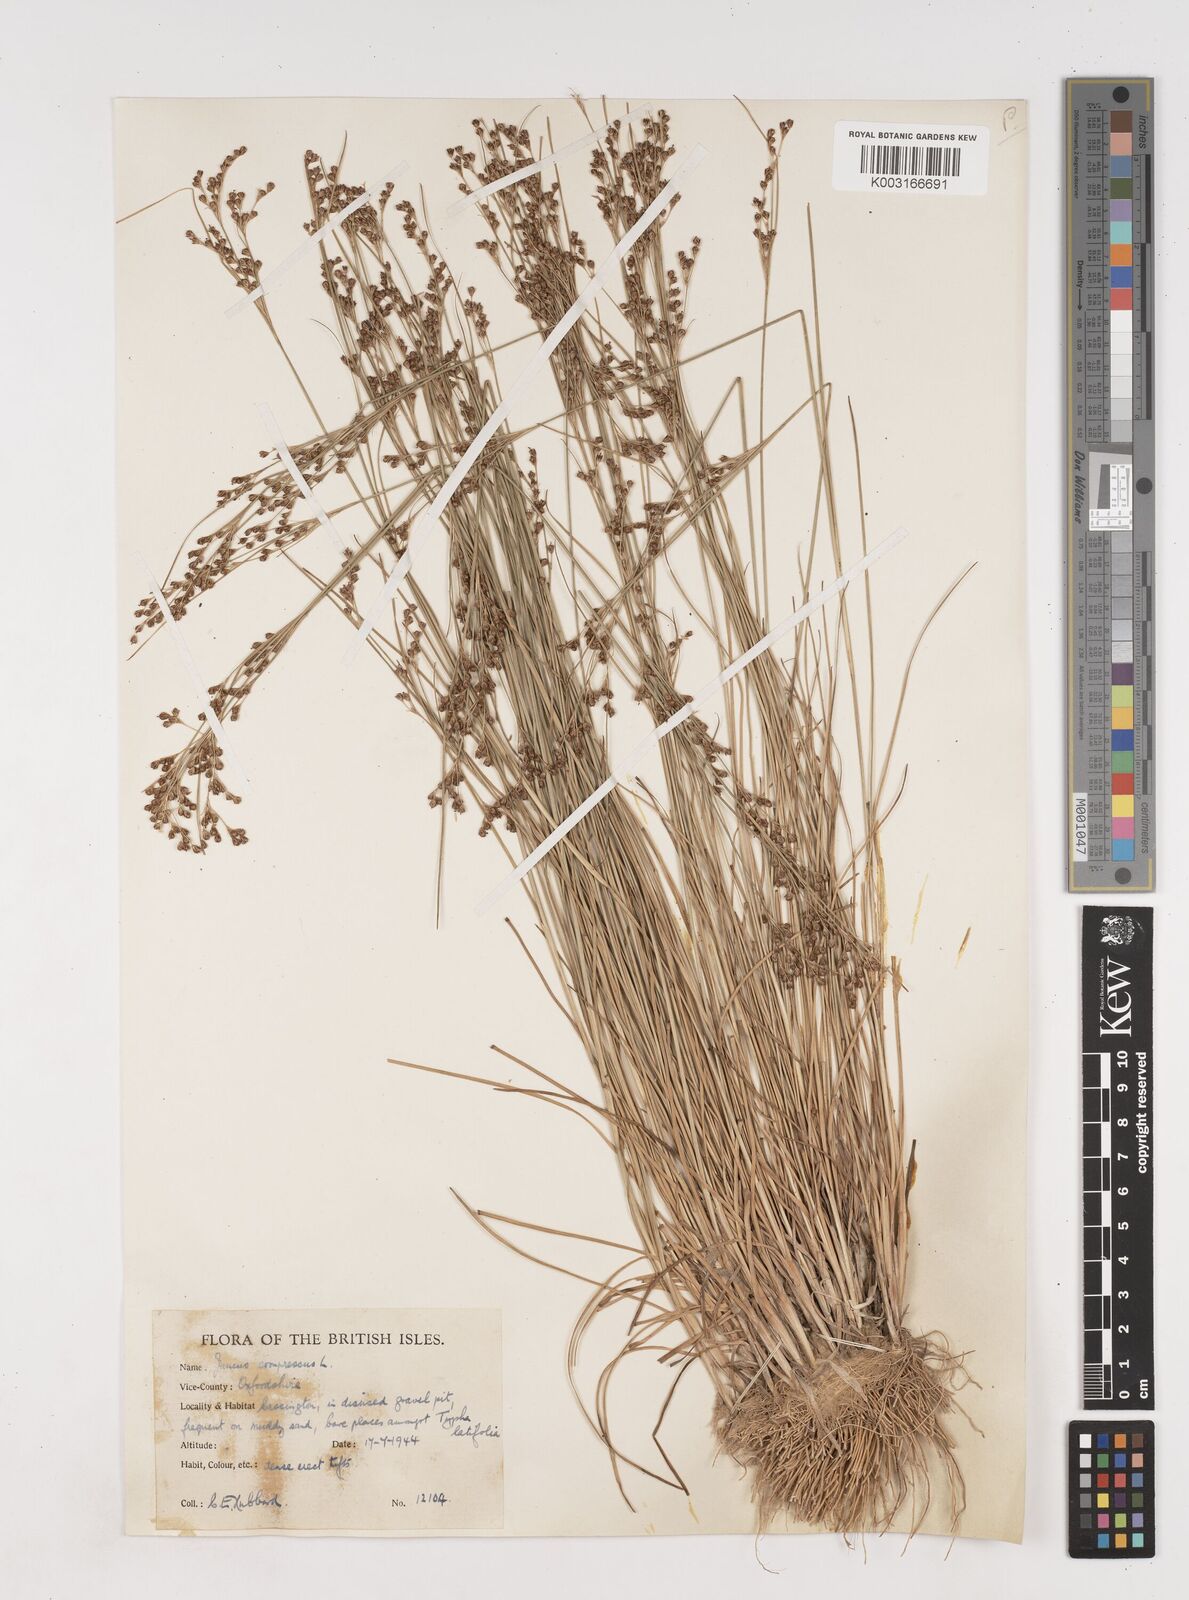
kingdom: Plantae
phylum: Tracheophyta
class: Liliopsida
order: Poales
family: Juncaceae
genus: Juncus
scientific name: Juncus compressus
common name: Round-fruited rush
